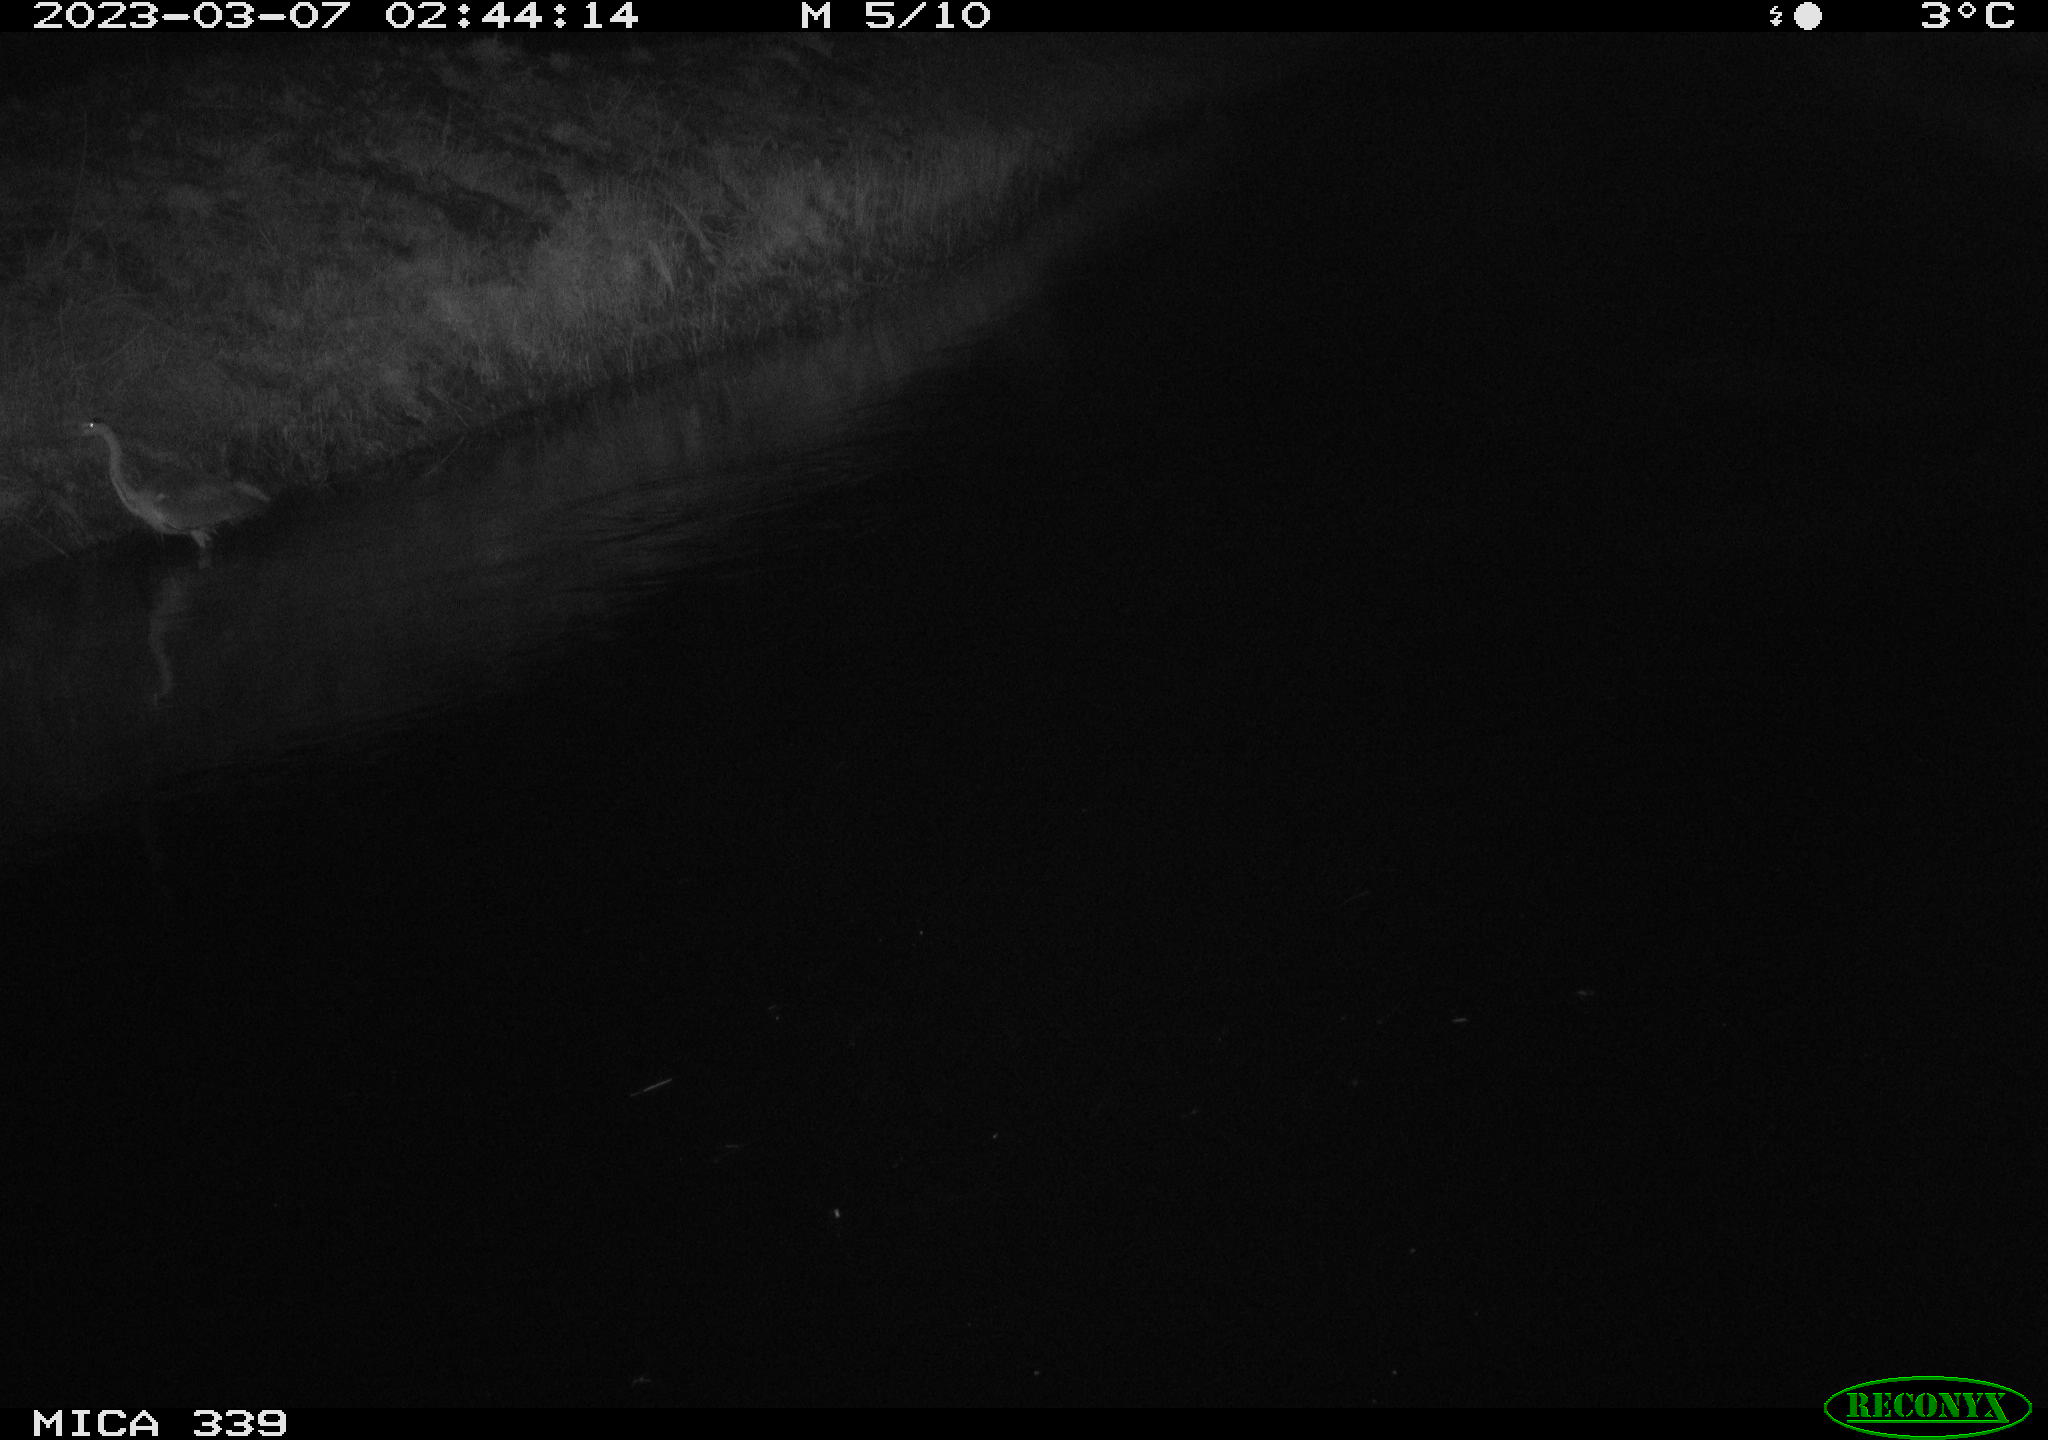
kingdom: Animalia
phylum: Chordata
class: Aves
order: Pelecaniformes
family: Ardeidae
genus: Ardea
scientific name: Ardea cinerea
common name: Grey heron
